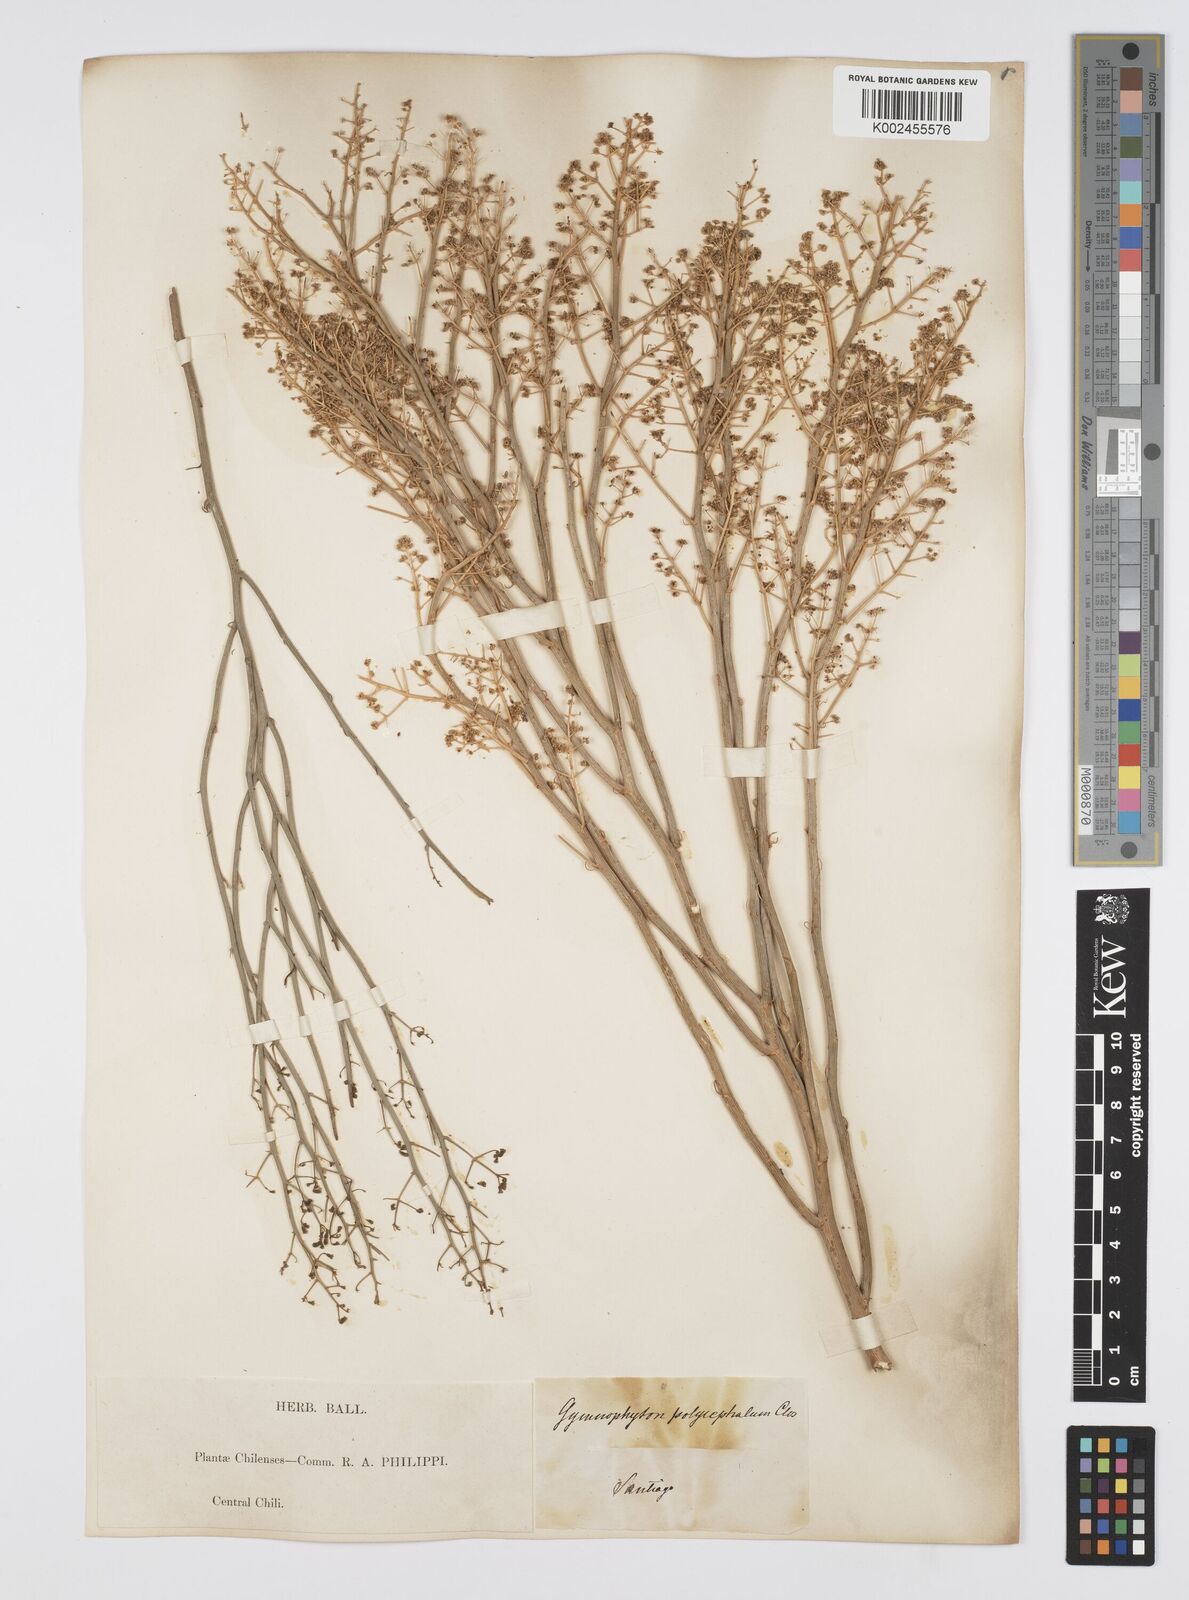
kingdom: Plantae
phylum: Tracheophyta
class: Magnoliopsida
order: Apiales
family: Apiaceae
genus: Gymnophyton
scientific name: Gymnophyton isatidicarpum
